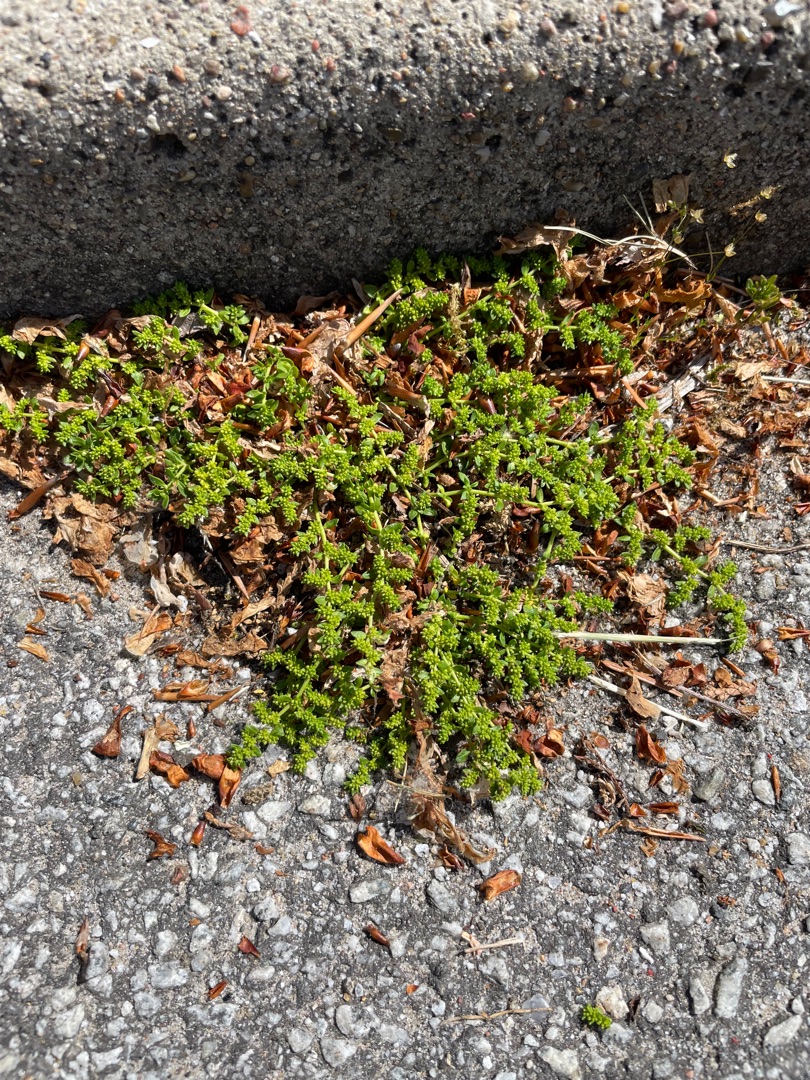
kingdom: Plantae
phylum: Tracheophyta
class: Magnoliopsida
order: Caryophyllales
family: Caryophyllaceae
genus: Herniaria
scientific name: Herniaria glabra
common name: Brudurt
